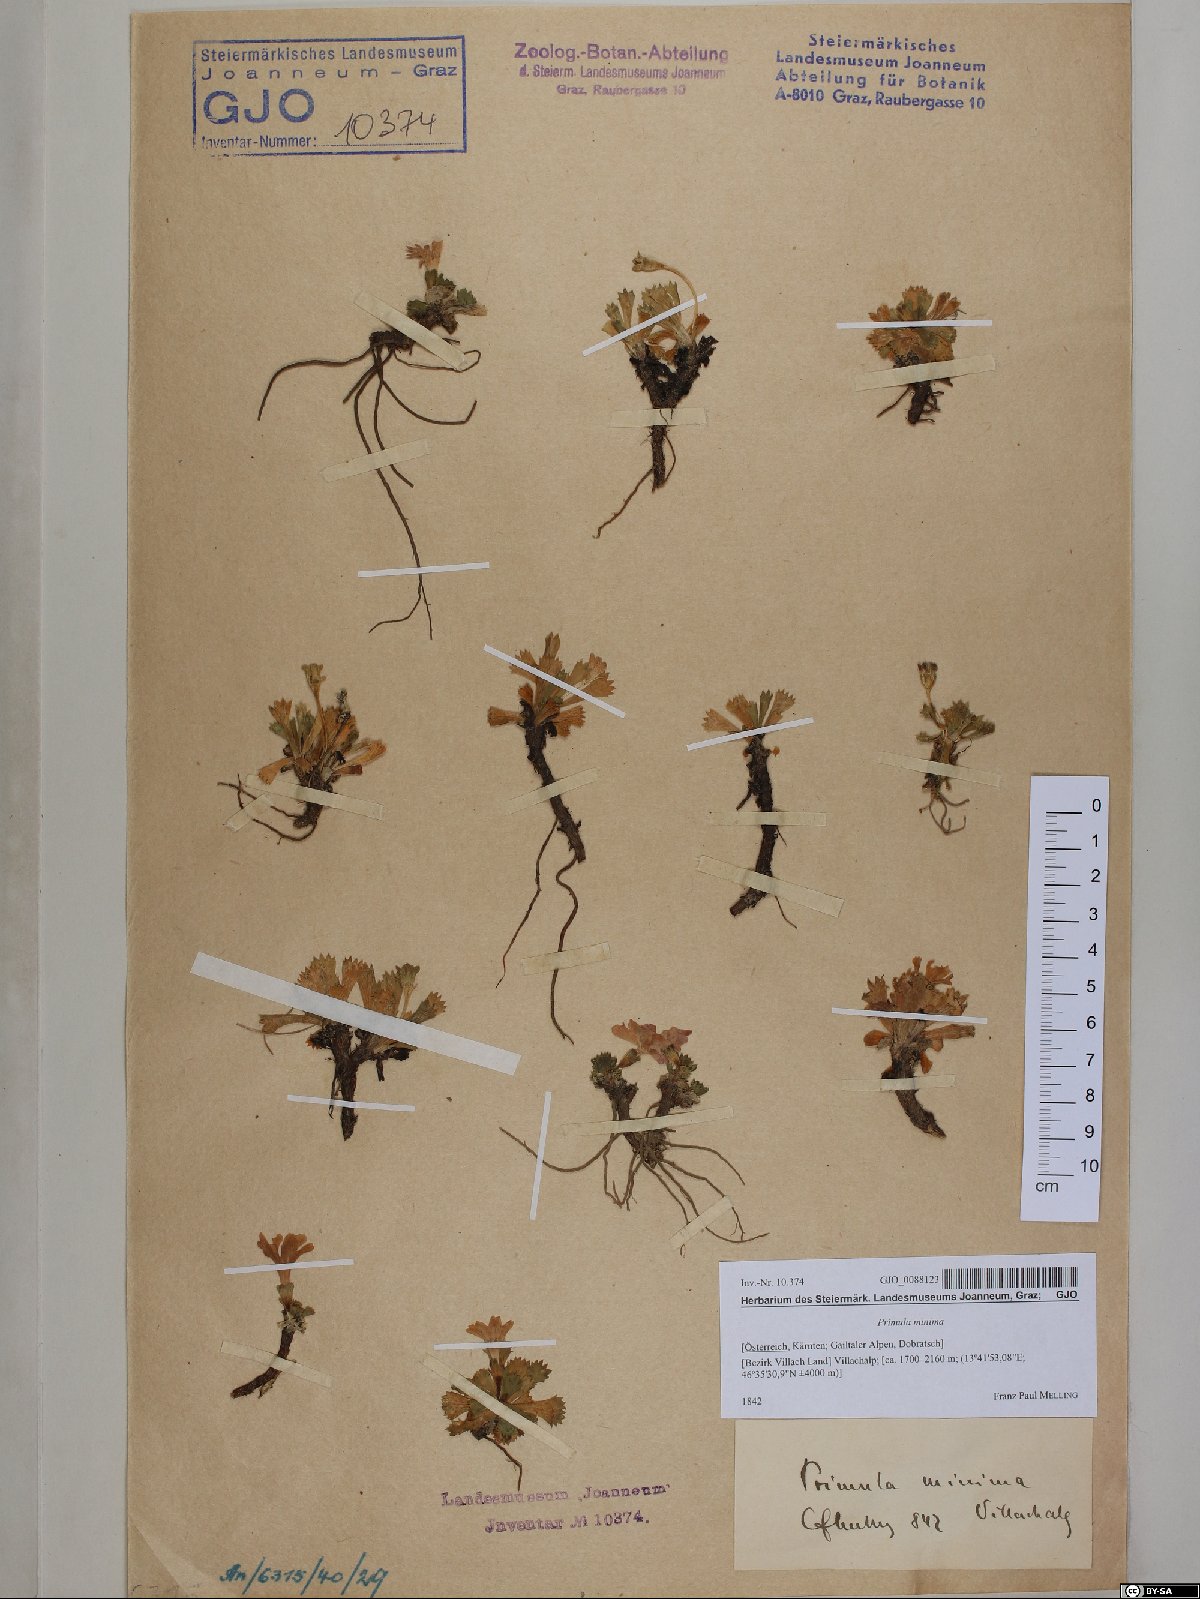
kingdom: Plantae
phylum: Tracheophyta
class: Magnoliopsida
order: Ericales
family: Primulaceae
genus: Primula
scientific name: Primula minima
